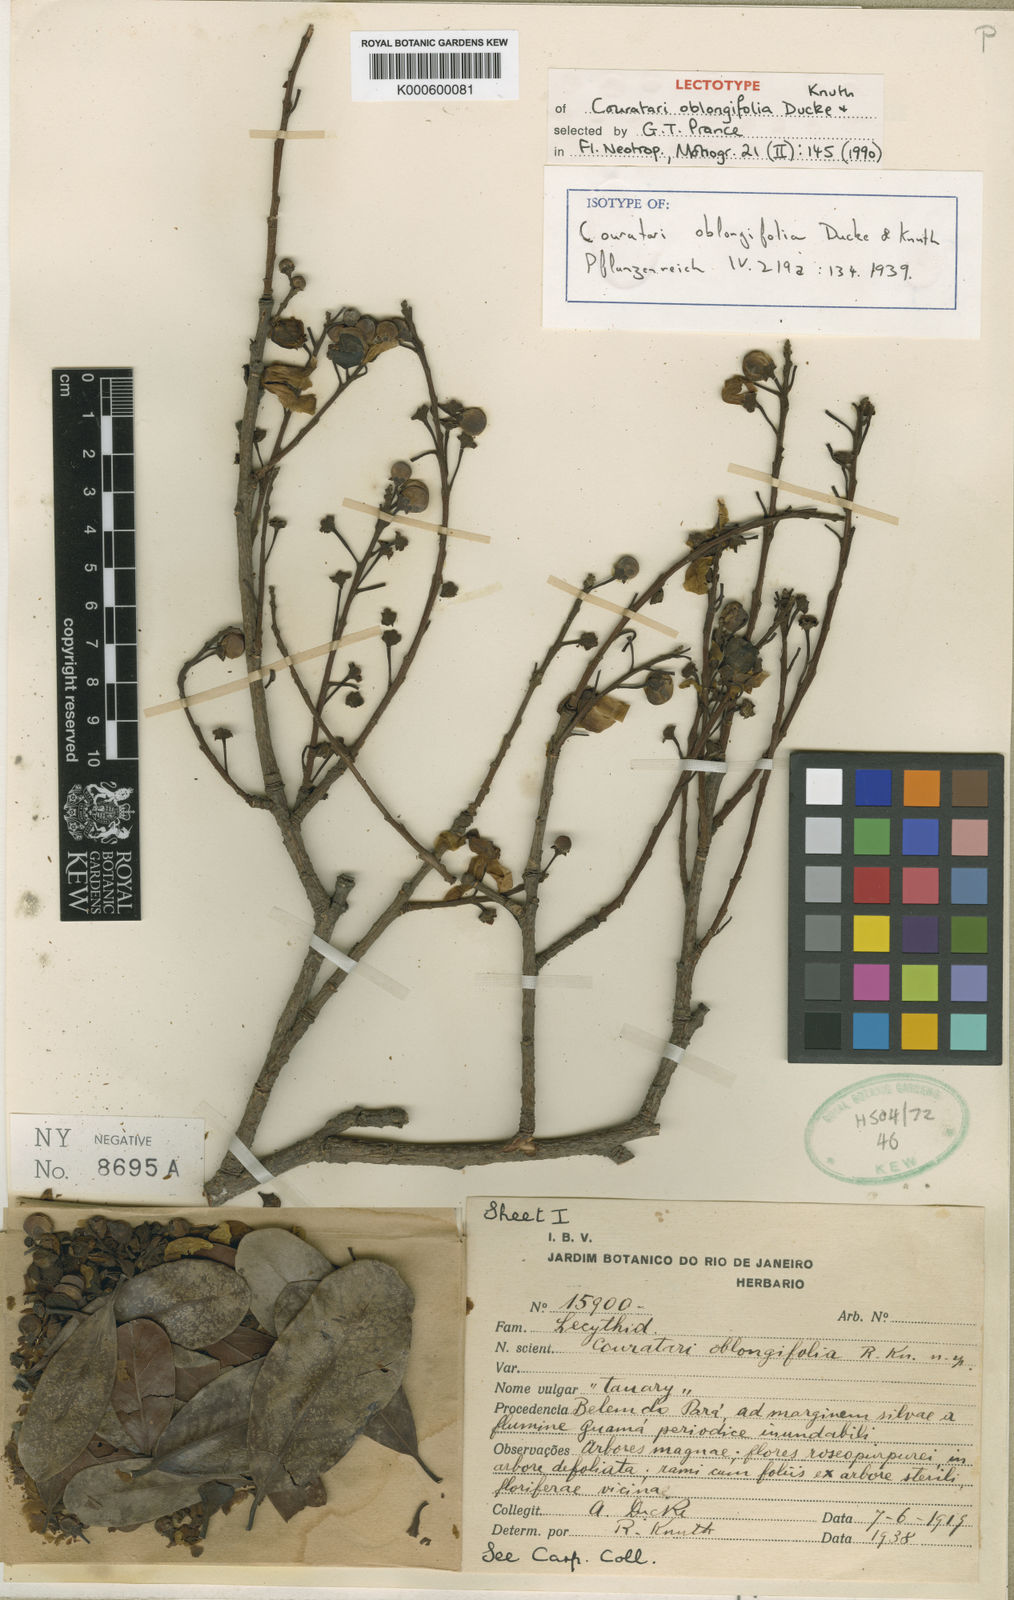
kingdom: Plantae
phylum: Tracheophyta
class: Magnoliopsida
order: Ericales
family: Lecythidaceae
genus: Couratari
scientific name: Couratari oblongifolia
